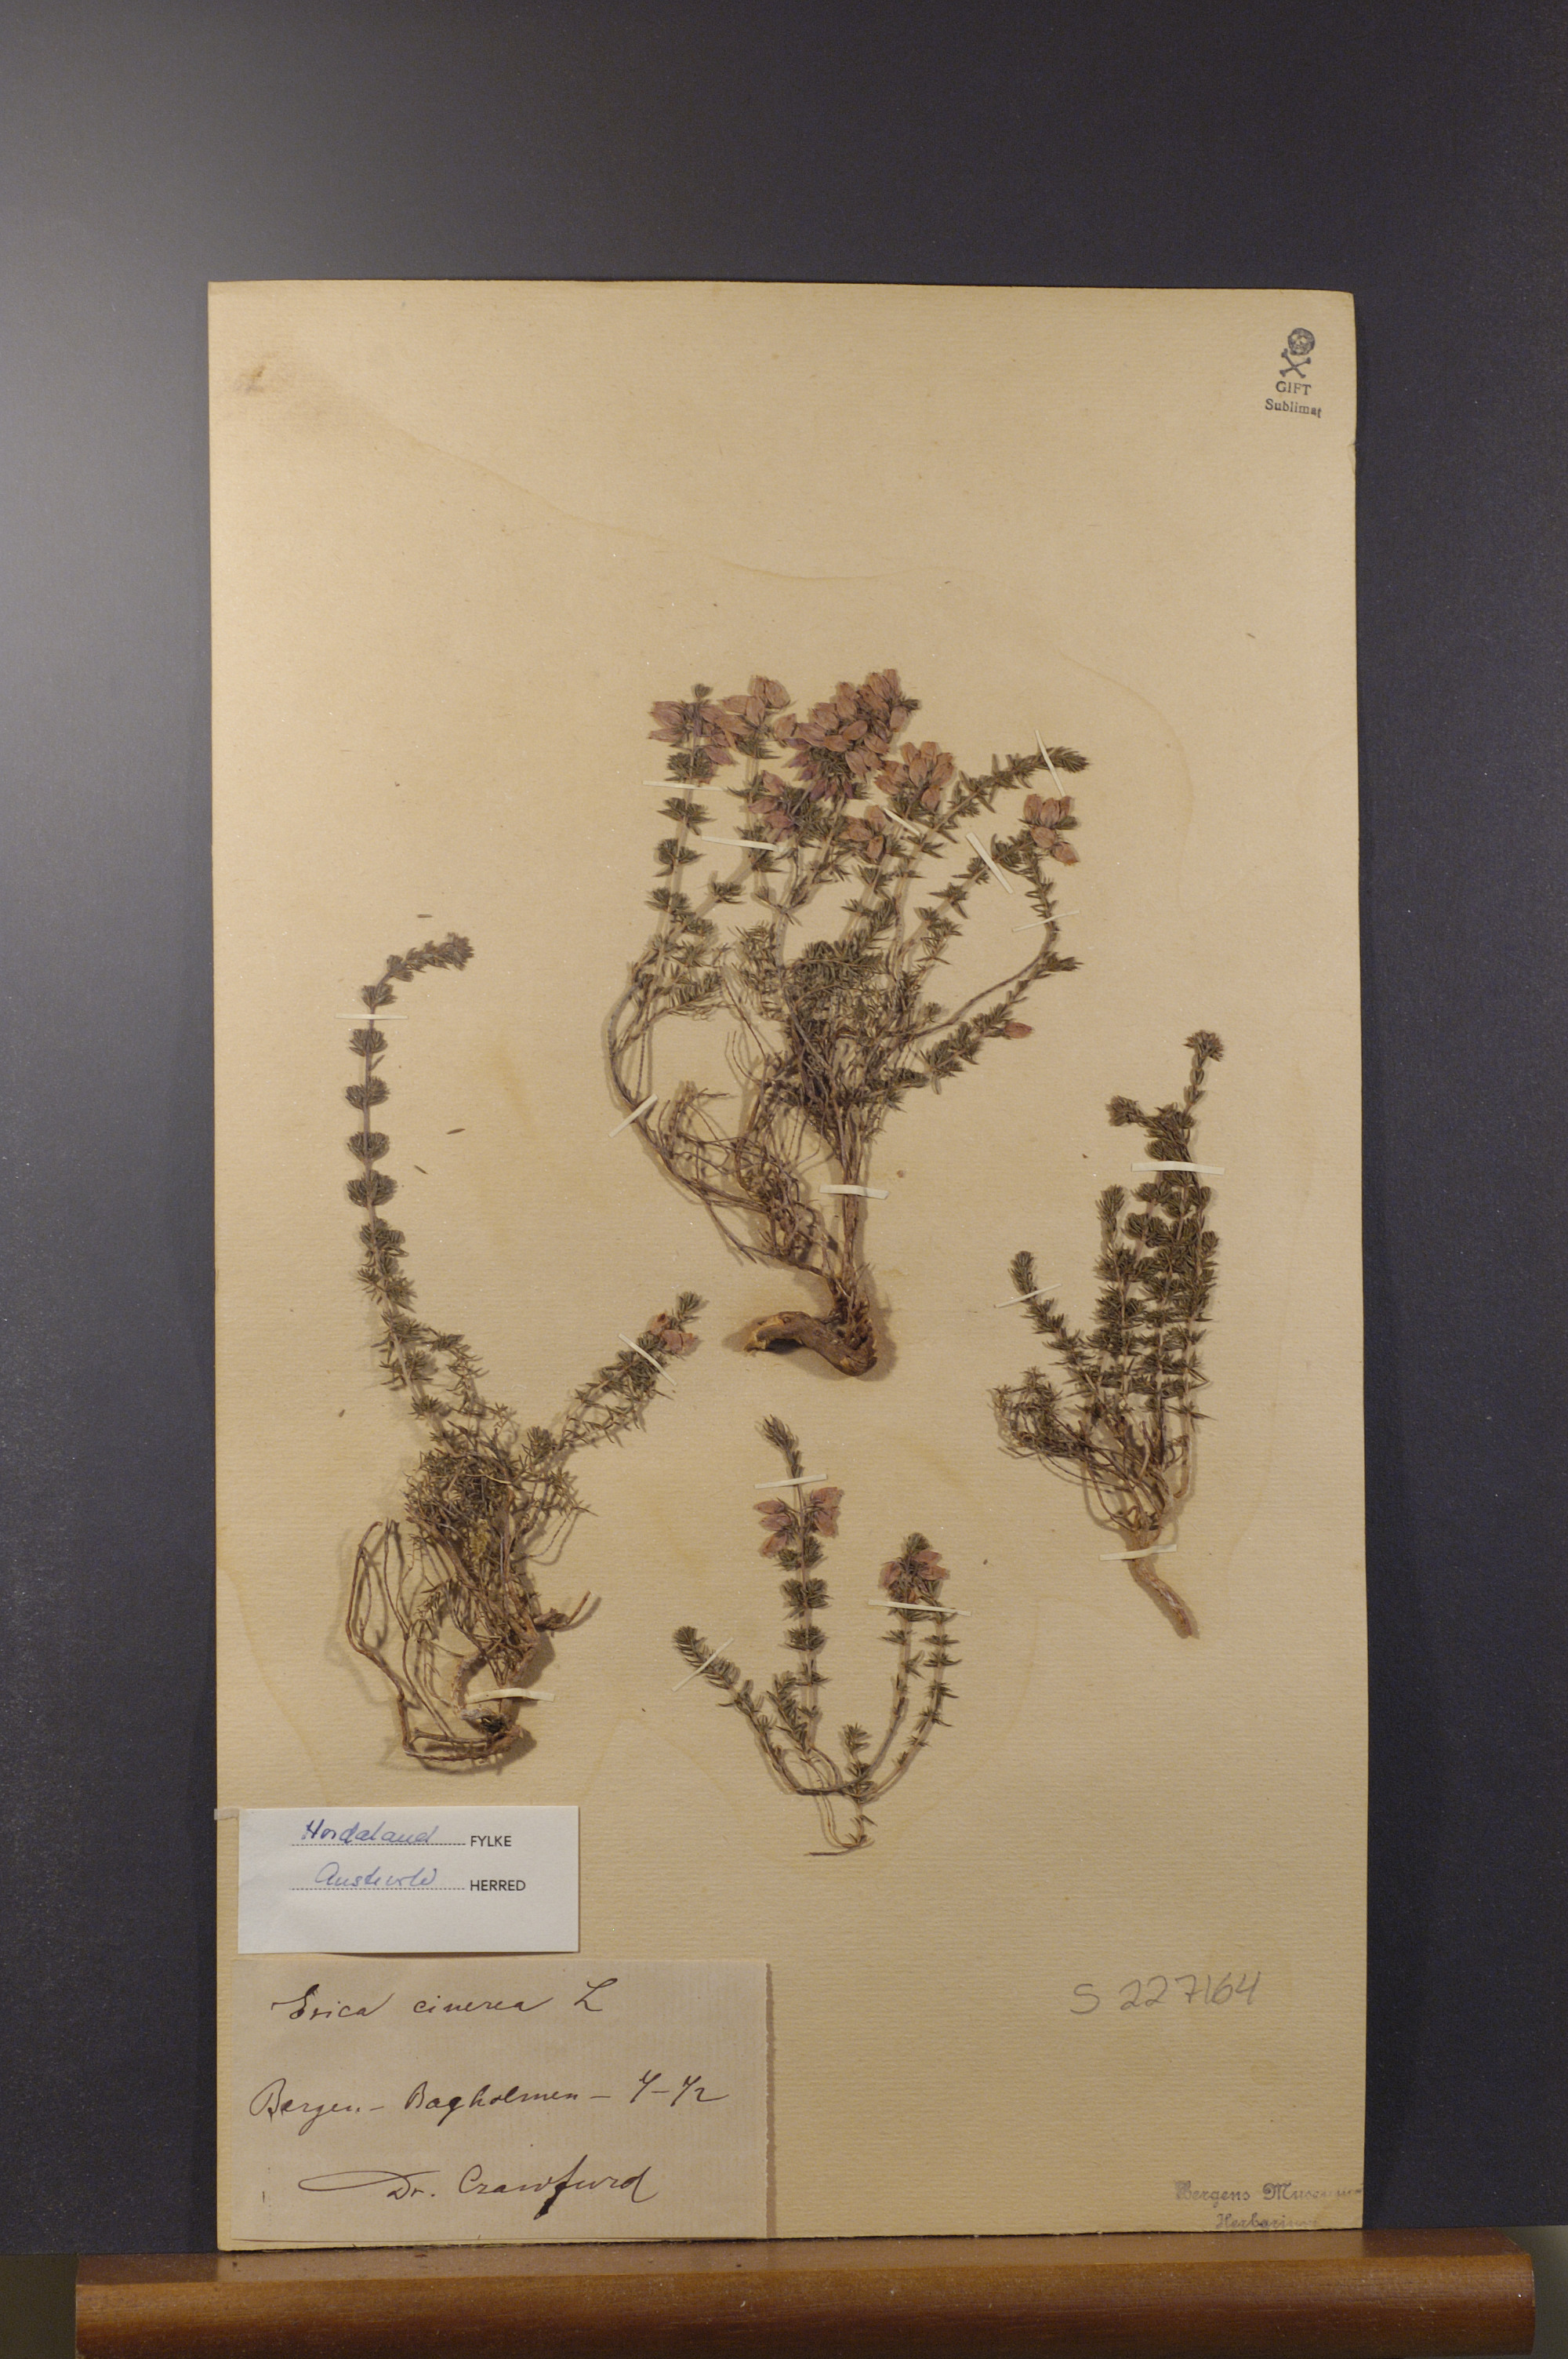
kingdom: Plantae
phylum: Tracheophyta
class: Magnoliopsida
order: Ericales
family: Ericaceae
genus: Erica
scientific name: Erica cinerea
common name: Bell heather
